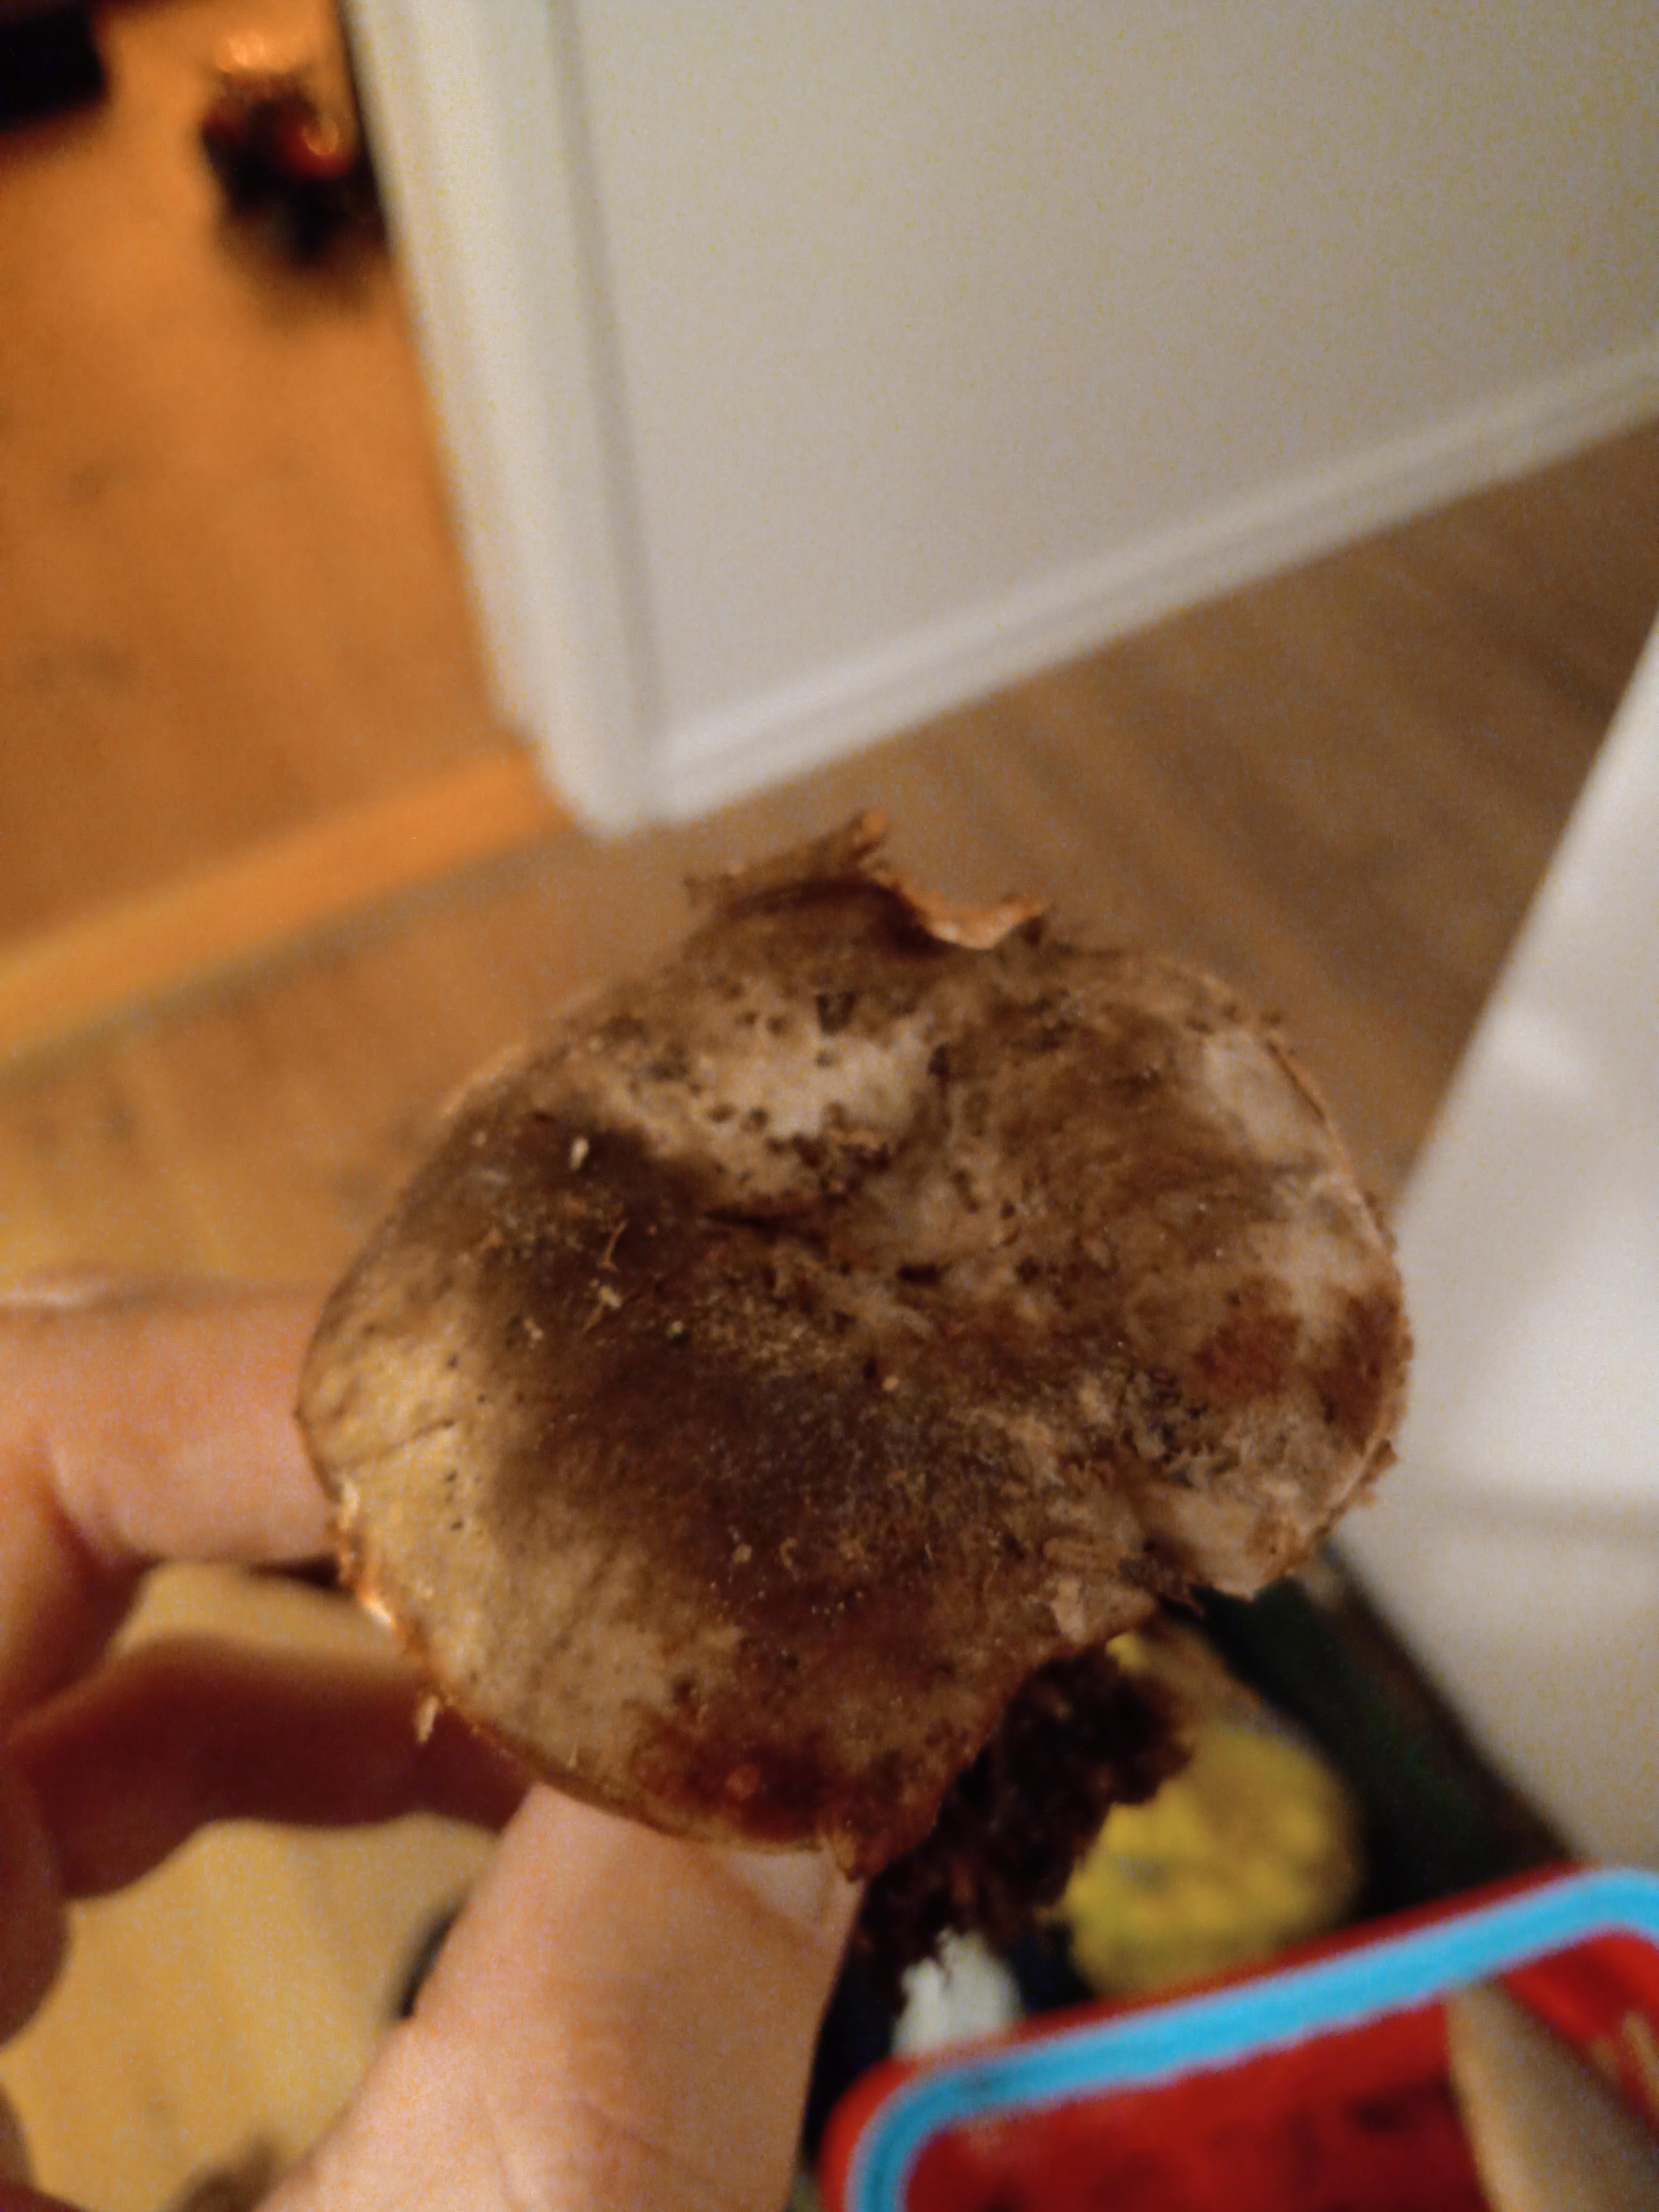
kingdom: Fungi
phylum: Basidiomycota
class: Agaricomycetes
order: Russulales
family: Russulaceae
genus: Russula
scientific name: Russula adusta
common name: sværtende skørhat
